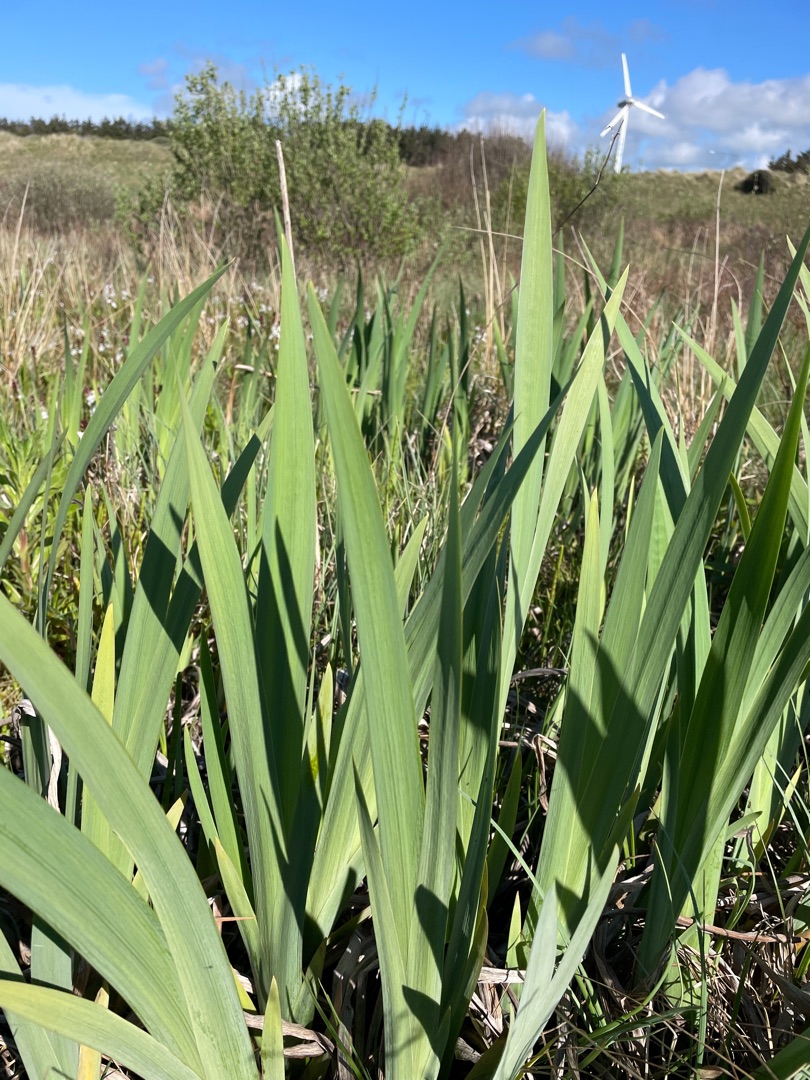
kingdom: Plantae
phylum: Tracheophyta
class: Liliopsida
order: Asparagales
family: Iridaceae
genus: Iris
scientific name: Iris pseudacorus
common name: Gul iris
